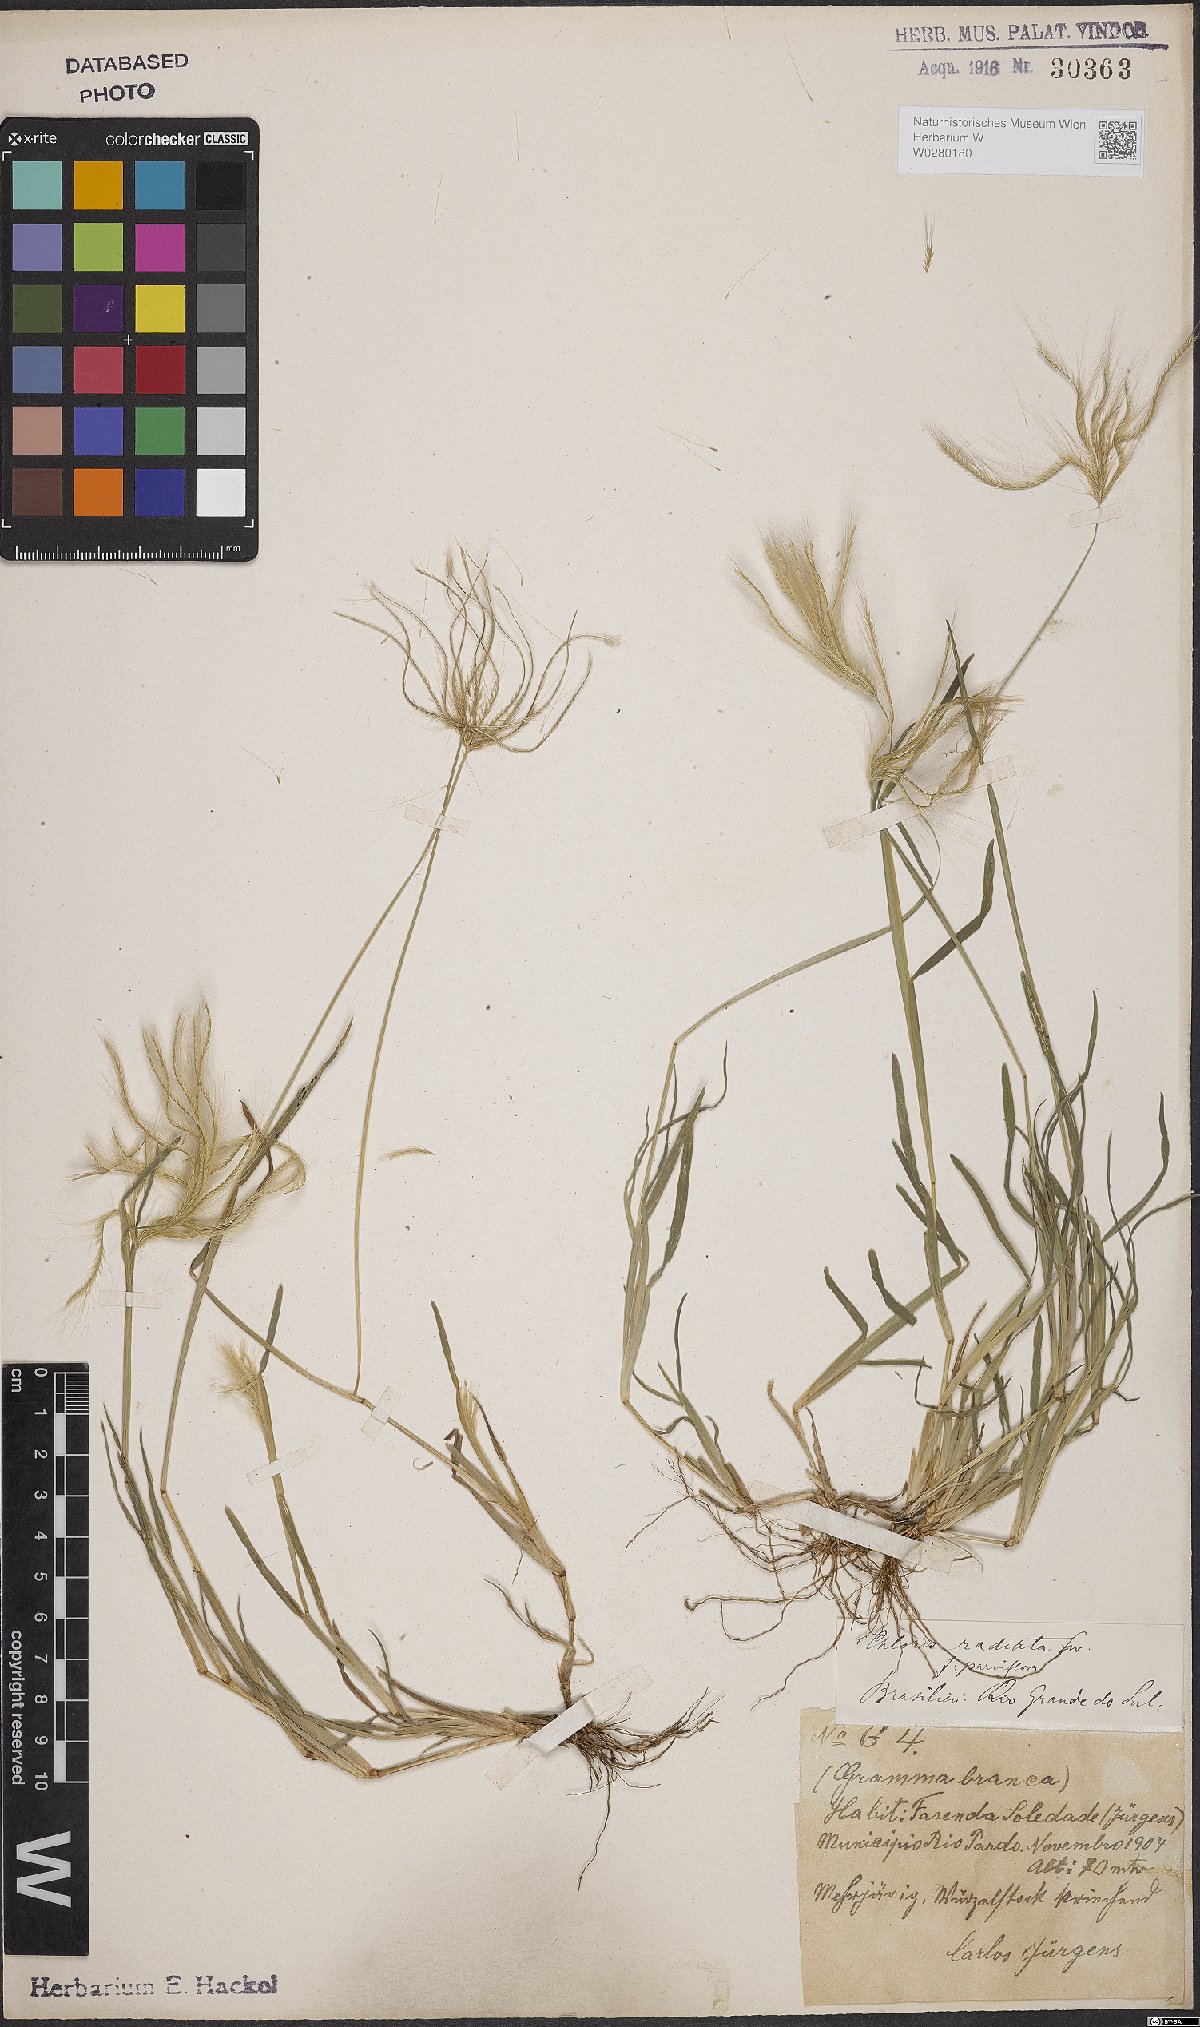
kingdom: Plantae
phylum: Tracheophyta
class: Liliopsida
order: Poales
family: Poaceae
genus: Chloris
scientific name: Chloris radiata
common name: Radiate fingergrass
